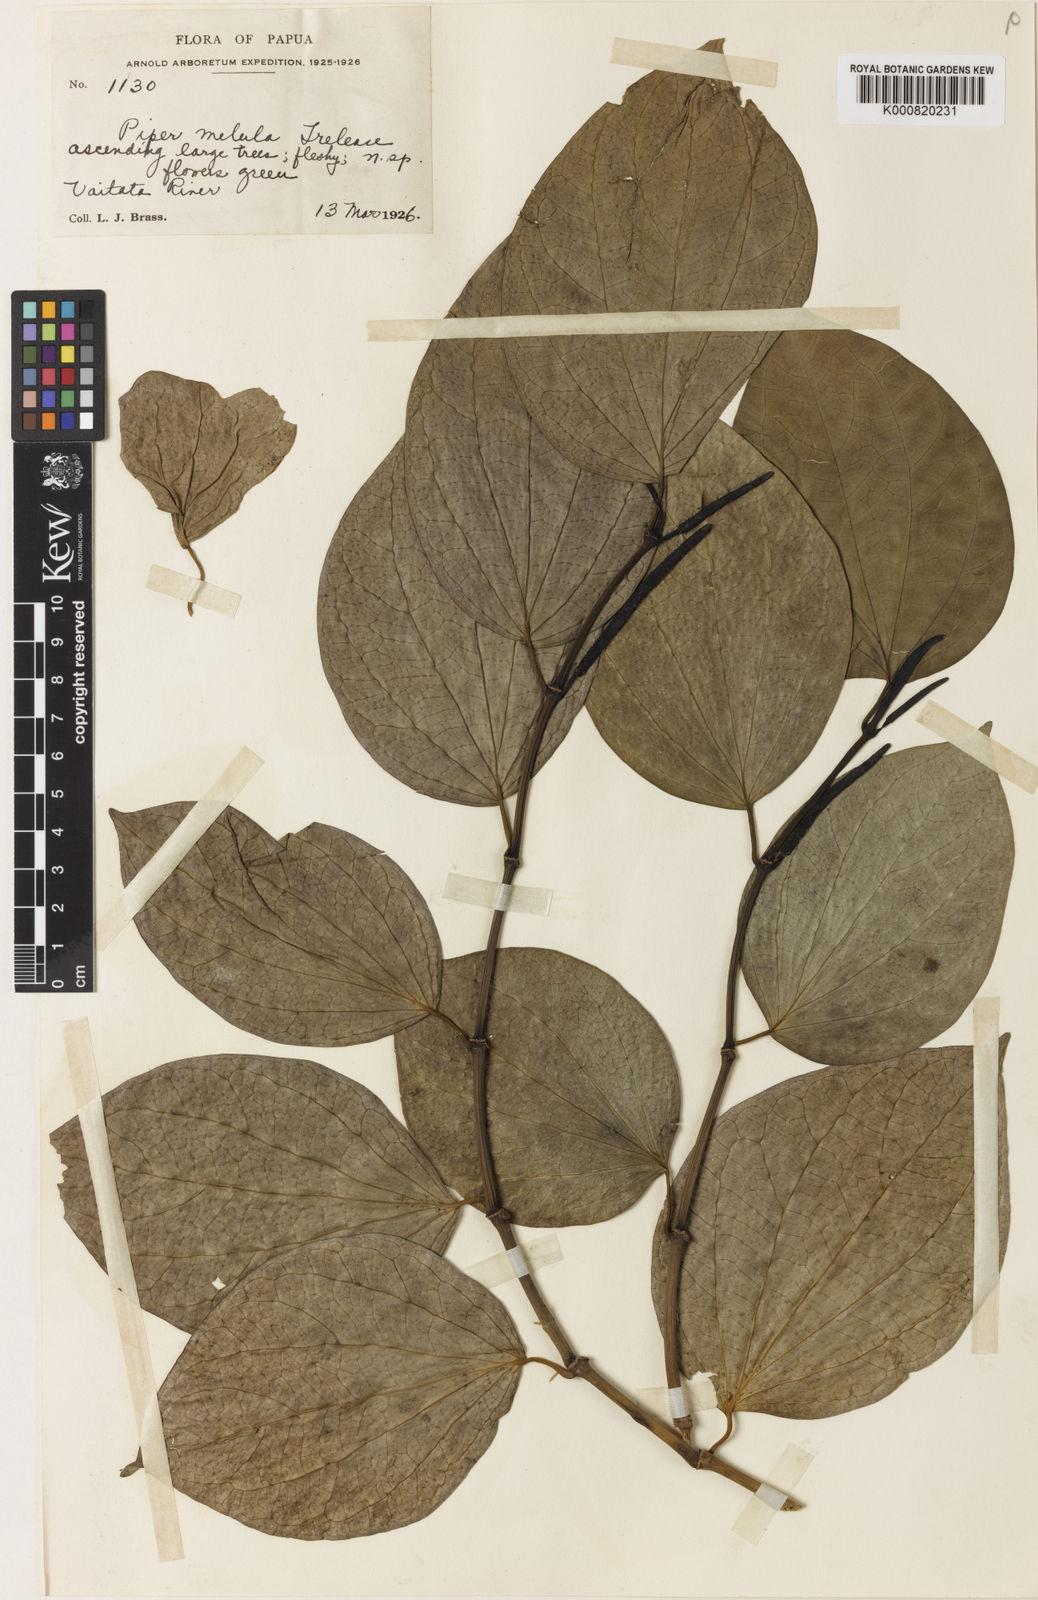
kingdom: Plantae
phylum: Tracheophyta
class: Magnoliopsida
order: Piperales
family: Piperaceae
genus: Piper
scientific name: Piper insectifugum
